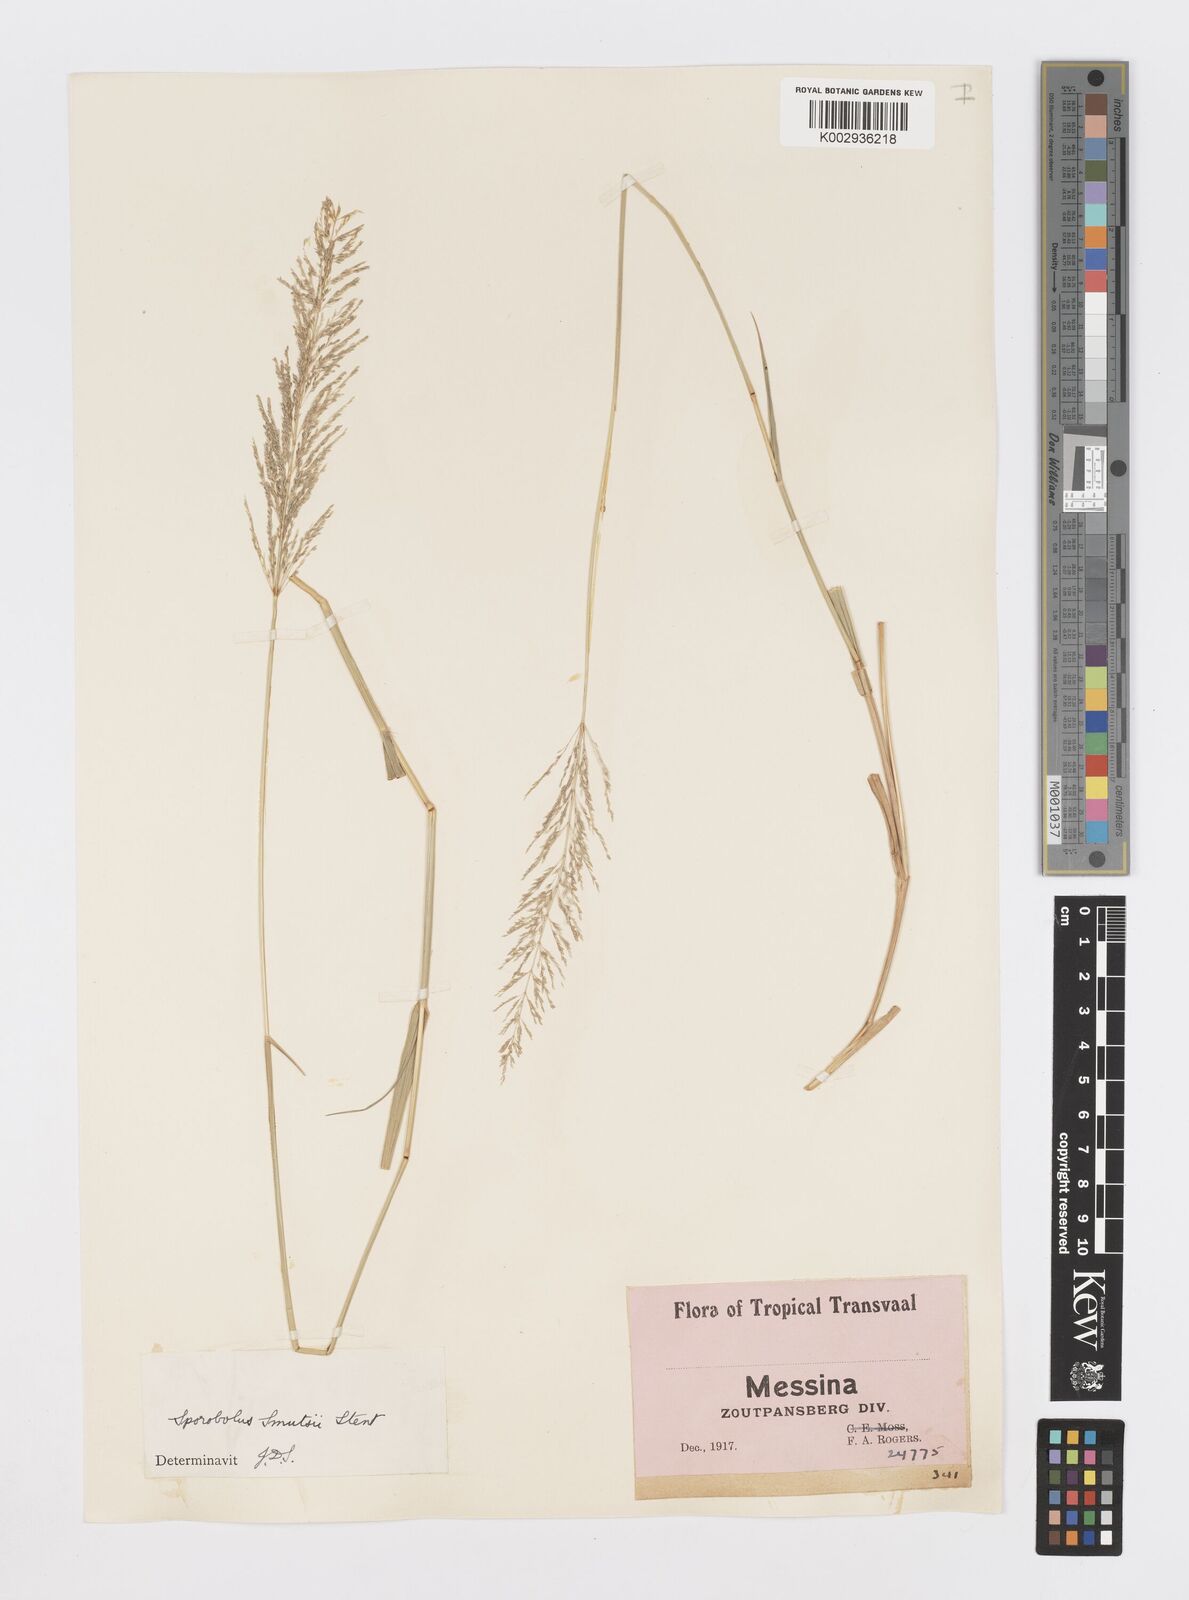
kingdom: Plantae
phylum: Tracheophyta
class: Liliopsida
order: Poales
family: Poaceae
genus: Sporobolus
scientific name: Sporobolus ioclados
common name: Pan dropseed
